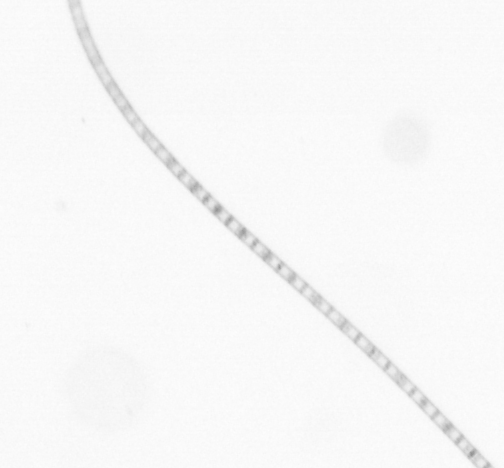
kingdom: Chromista
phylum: Ochrophyta
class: Bacillariophyceae
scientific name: Bacillariophyceae
